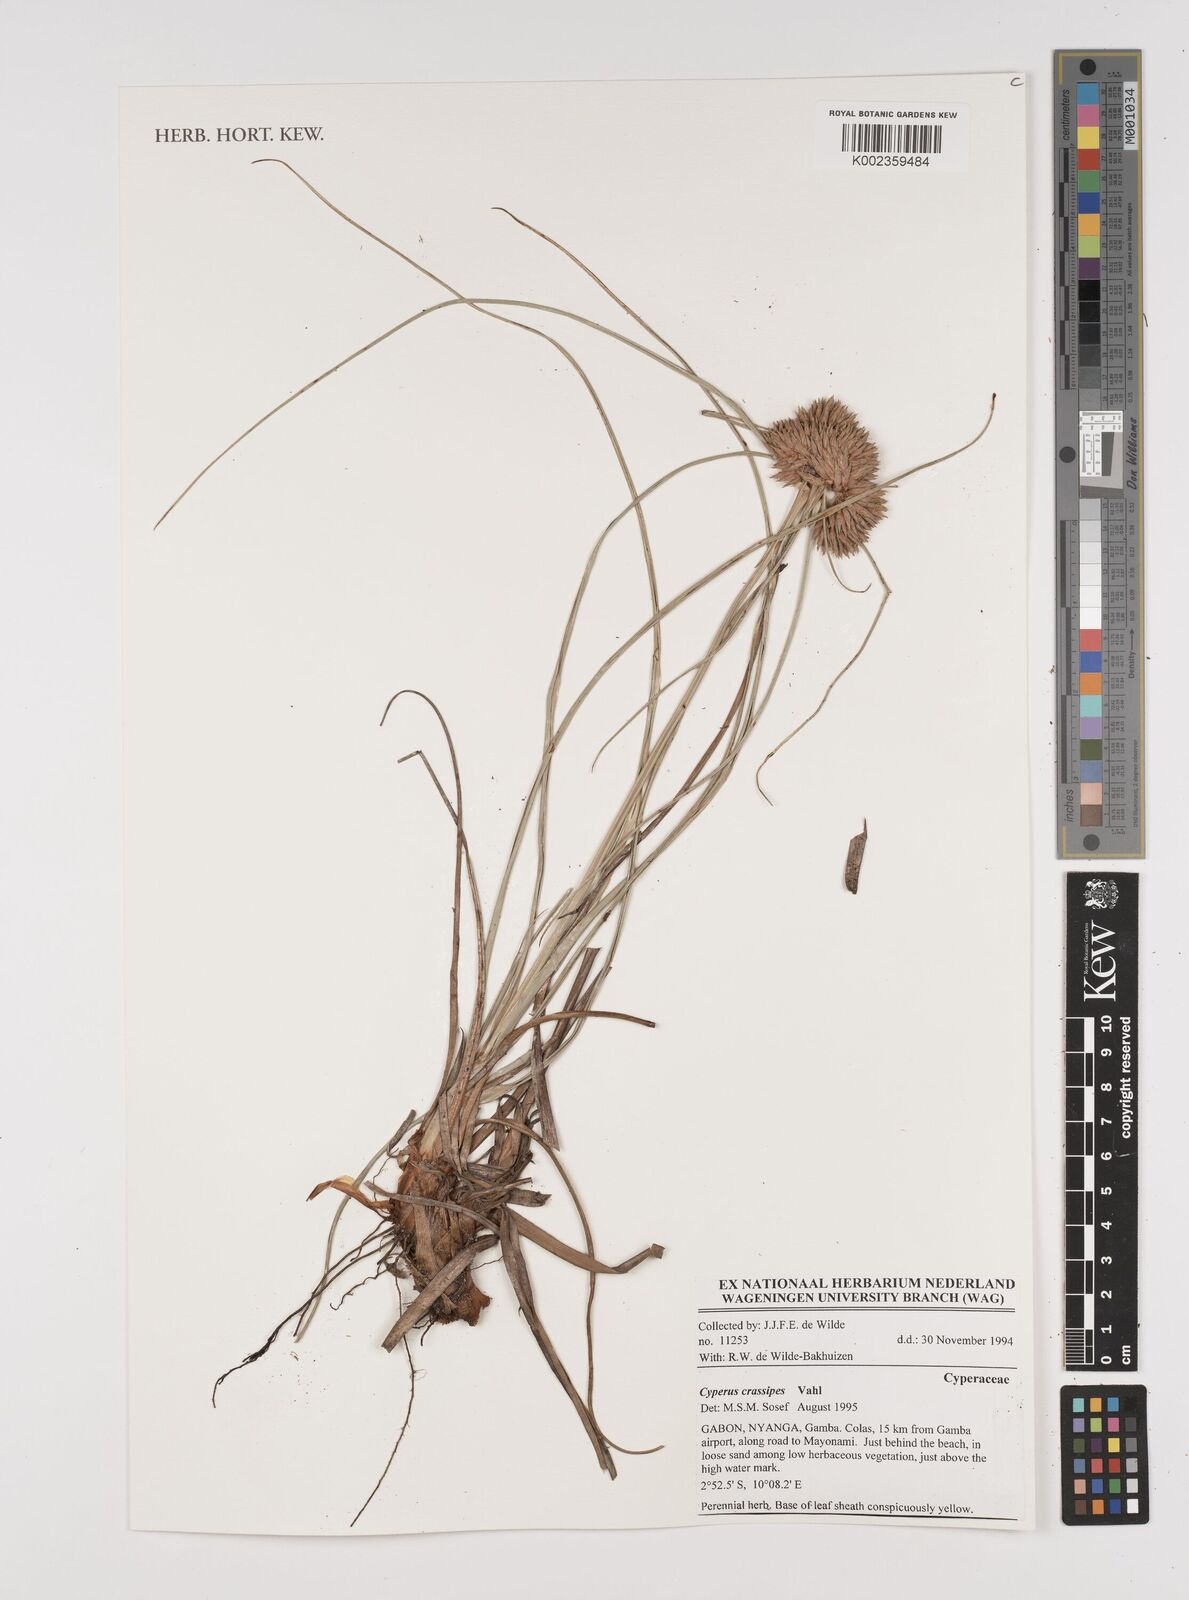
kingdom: Plantae
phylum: Tracheophyta
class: Liliopsida
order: Poales
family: Cyperaceae
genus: Cyperus
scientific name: Cyperus crassipes
